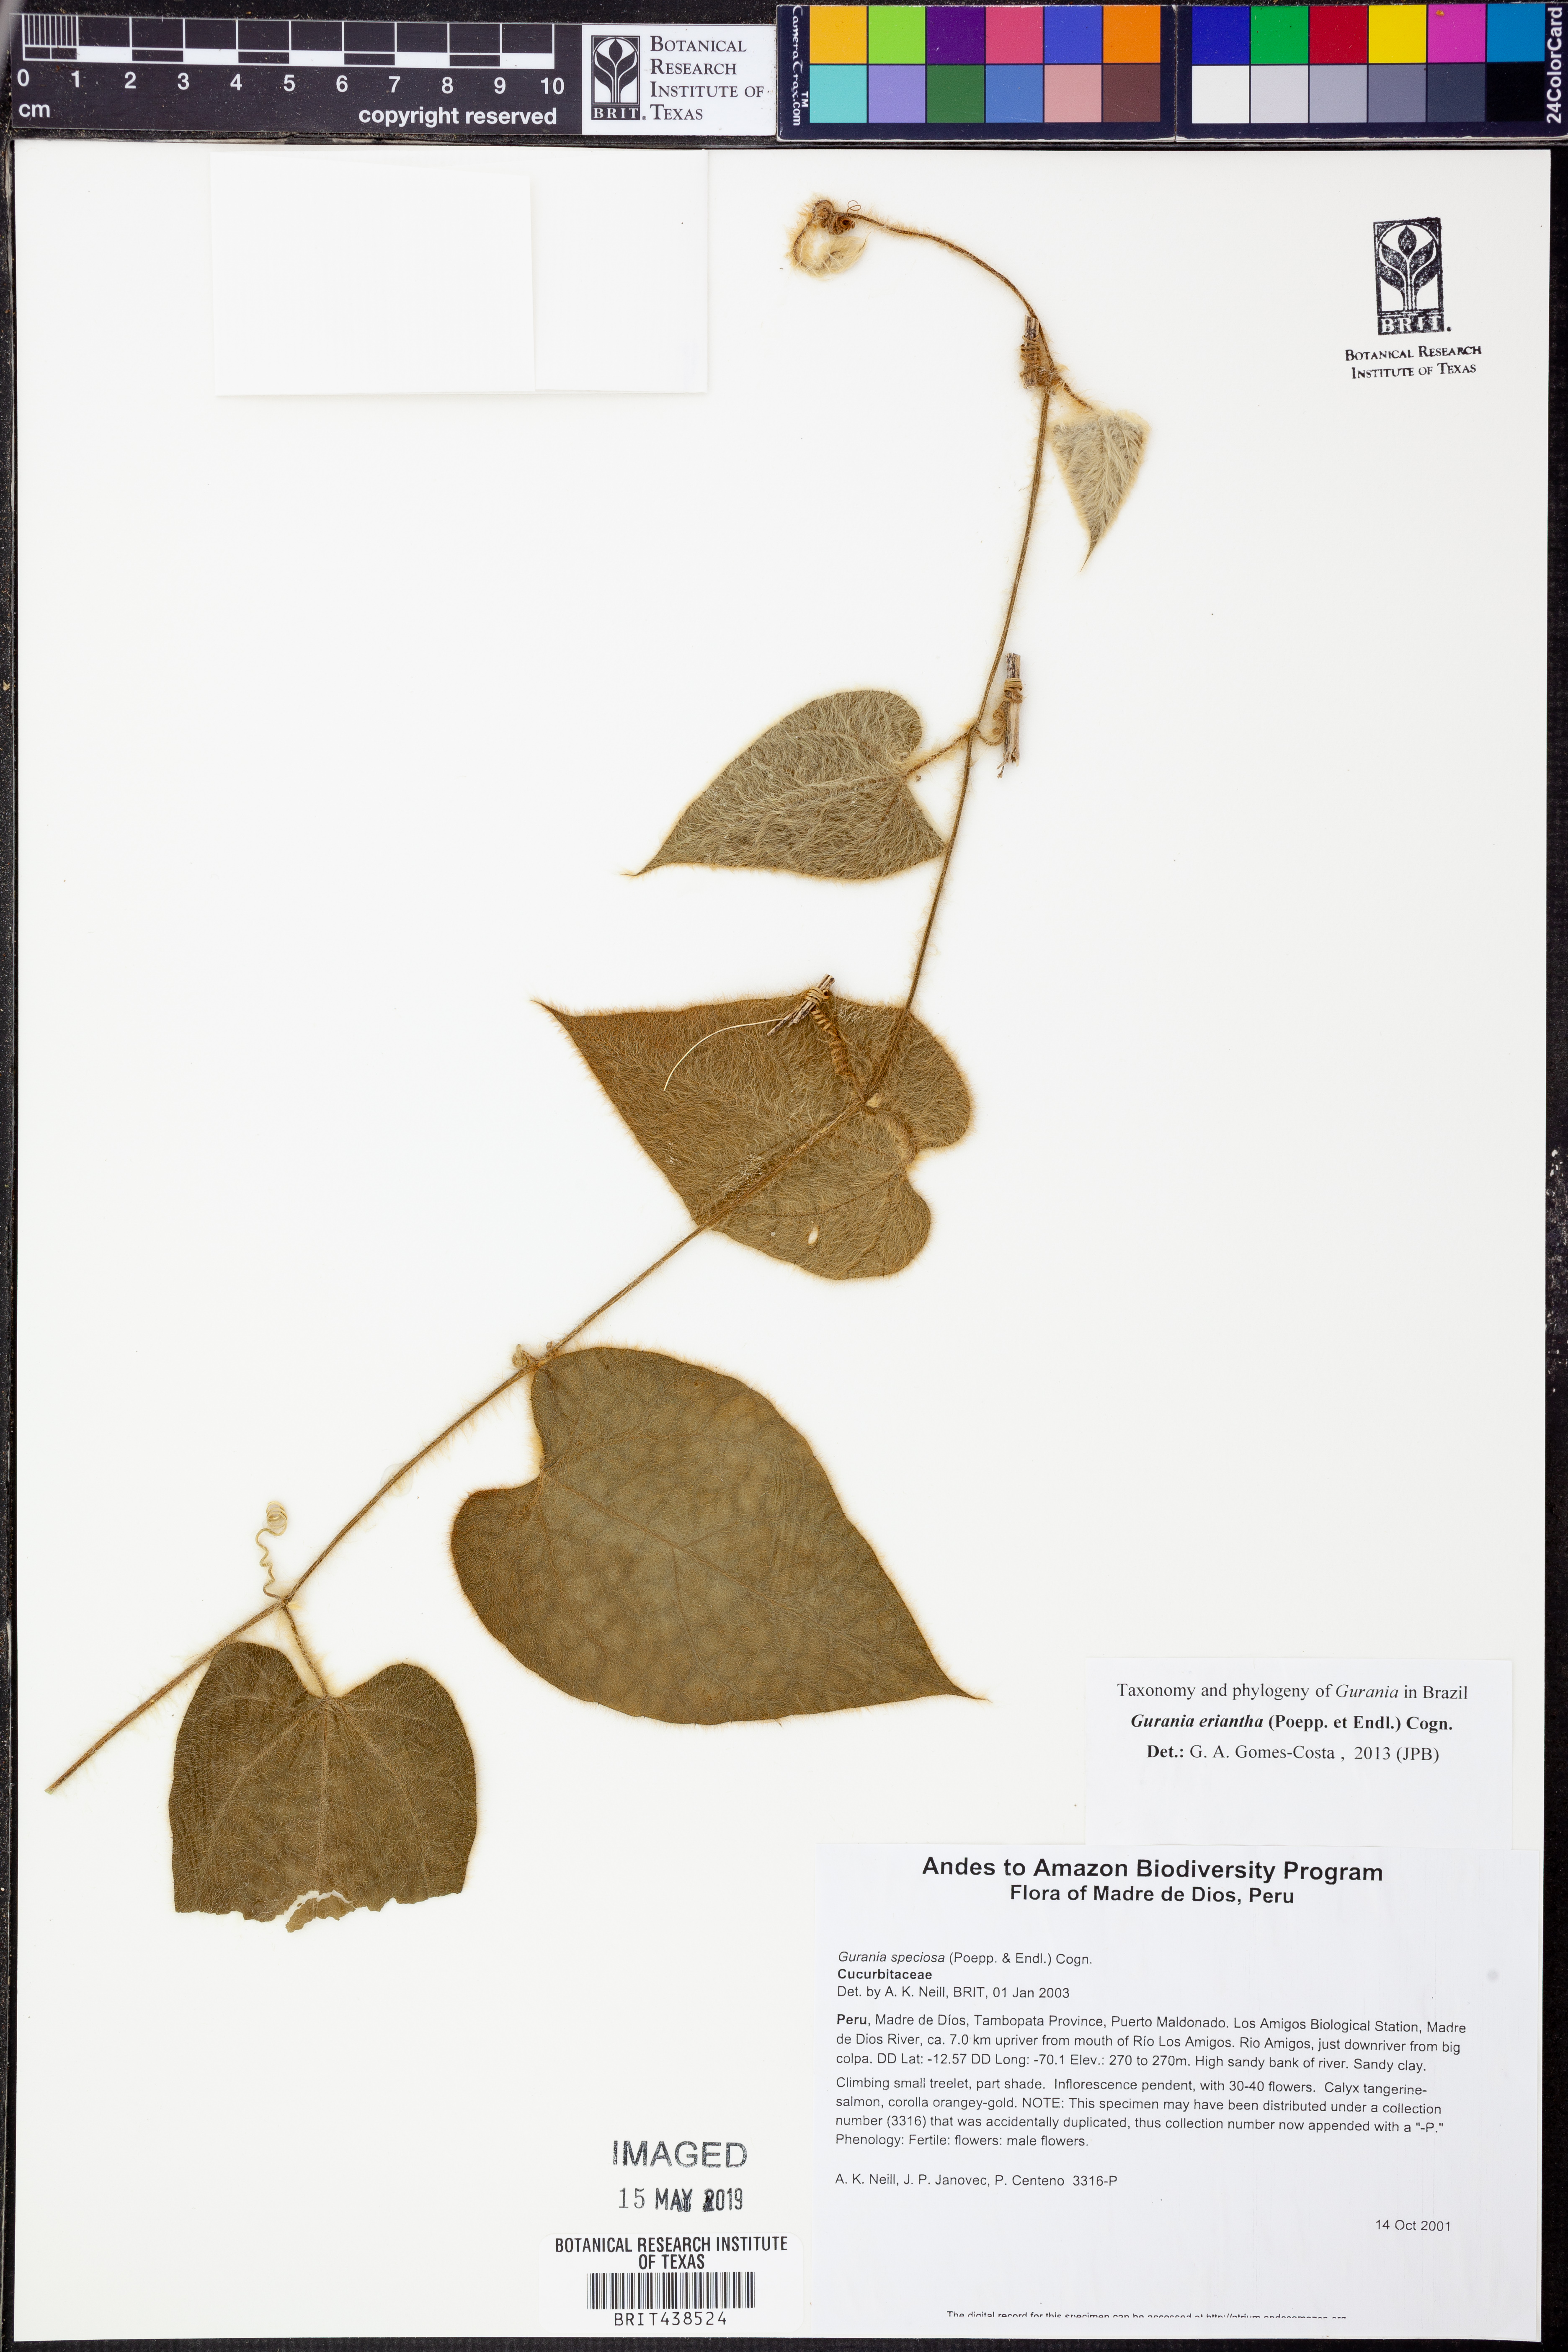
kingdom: Plantae
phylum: Tracheophyta
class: Magnoliopsida
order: Cucurbitales
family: Cucurbitaceae
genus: Gurania
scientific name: Gurania
